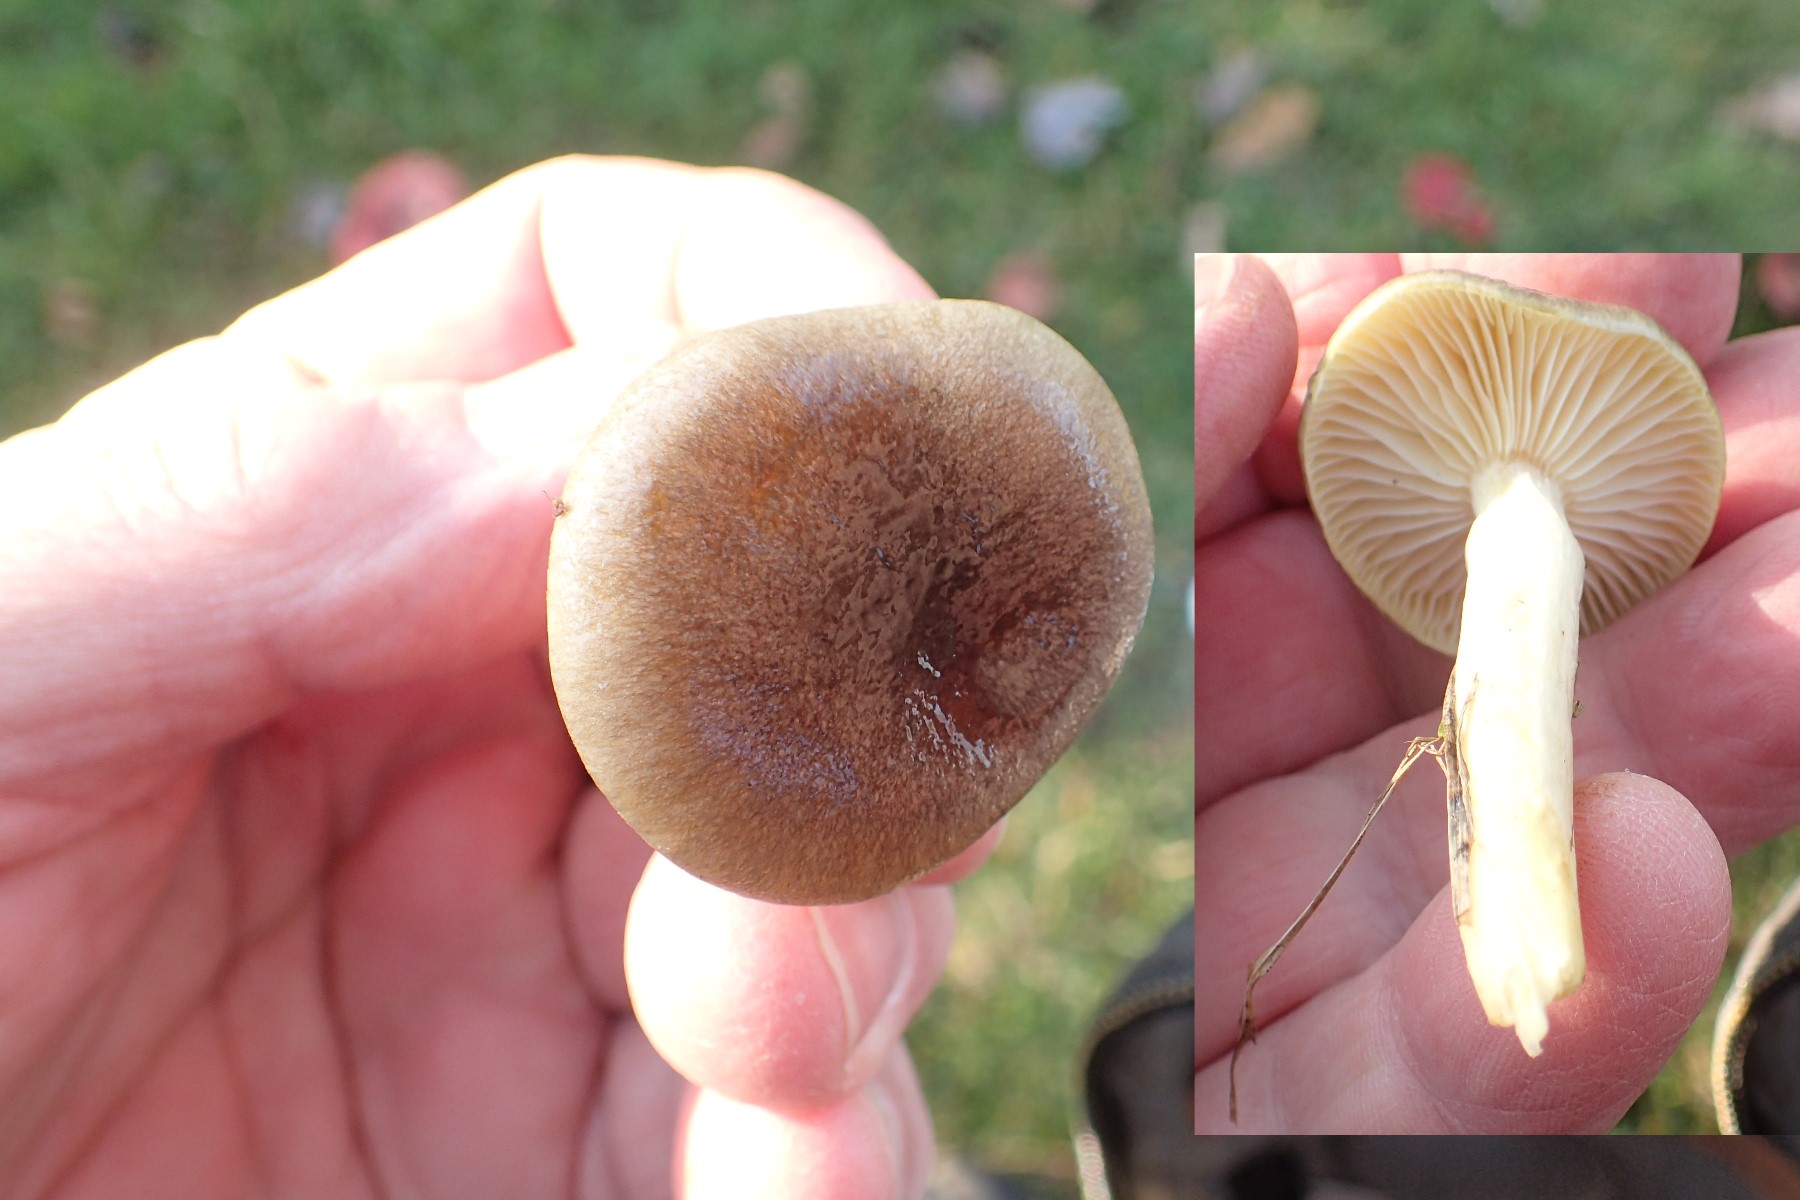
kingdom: Fungi
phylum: Basidiomycota
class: Agaricomycetes
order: Agaricales
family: Hygrophoraceae
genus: Hygrophorus
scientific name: Hygrophorus hypothejus
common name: frost-sneglehat
